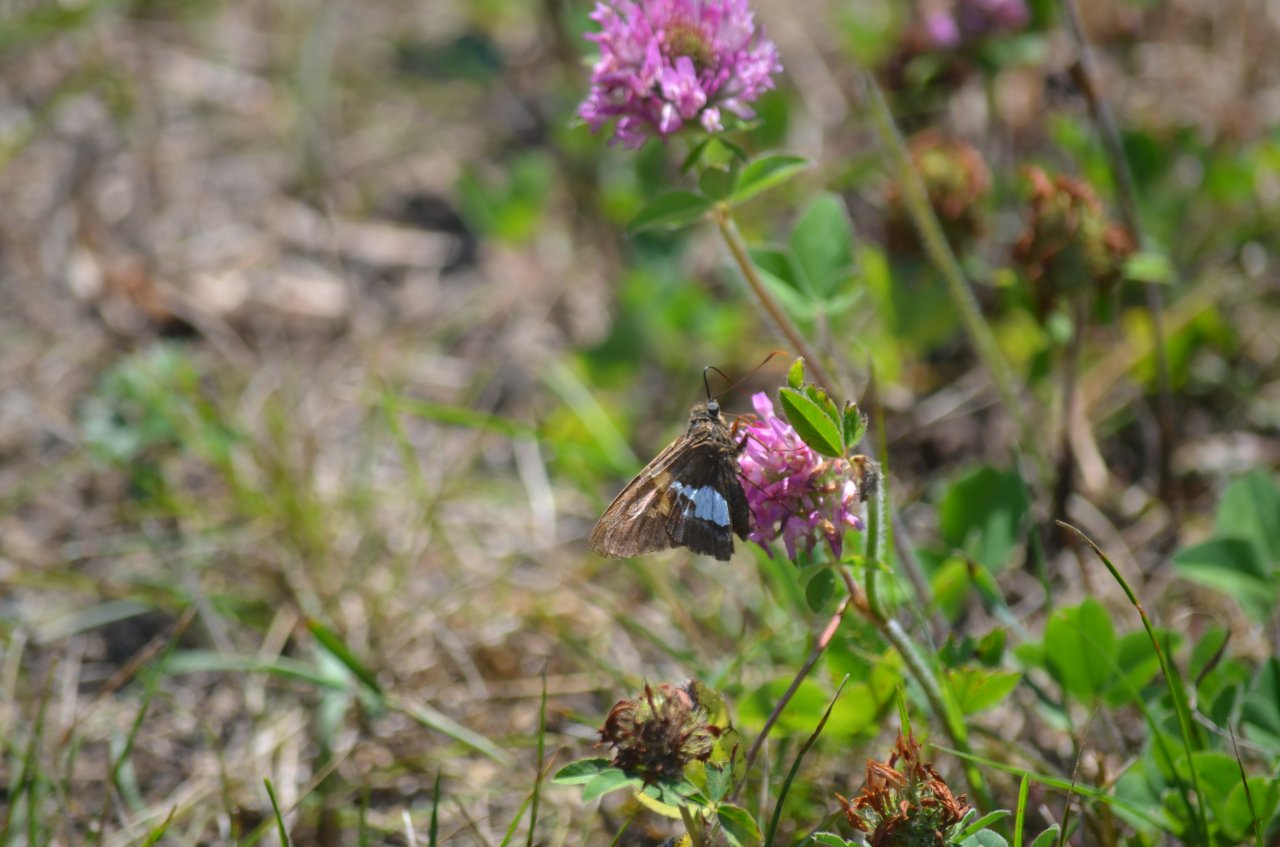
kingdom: Animalia
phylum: Arthropoda
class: Insecta
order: Lepidoptera
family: Hesperiidae
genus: Epargyreus
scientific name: Epargyreus clarus
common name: Silver-spotted Skipper
